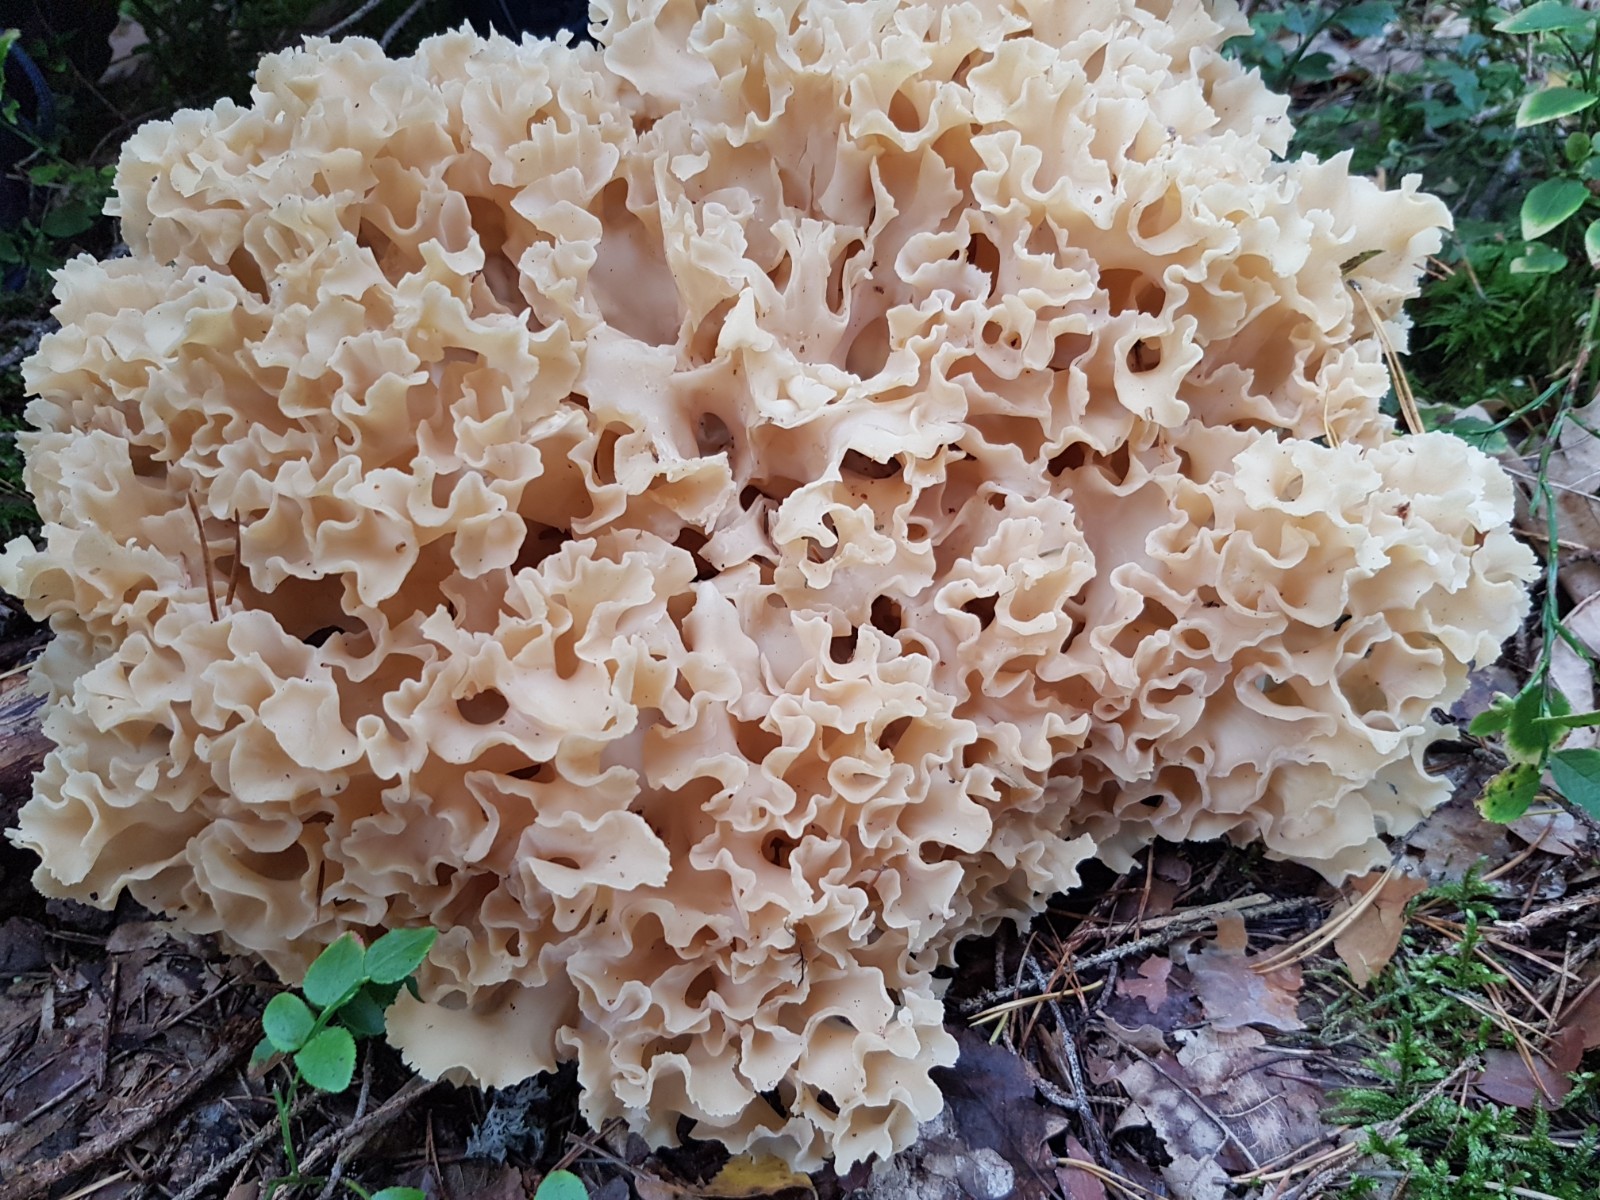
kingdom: Fungi
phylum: Basidiomycota
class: Agaricomycetes
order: Polyporales
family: Sparassidaceae
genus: Sparassis
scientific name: Sparassis crispa
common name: kruset blomkålssvamp
